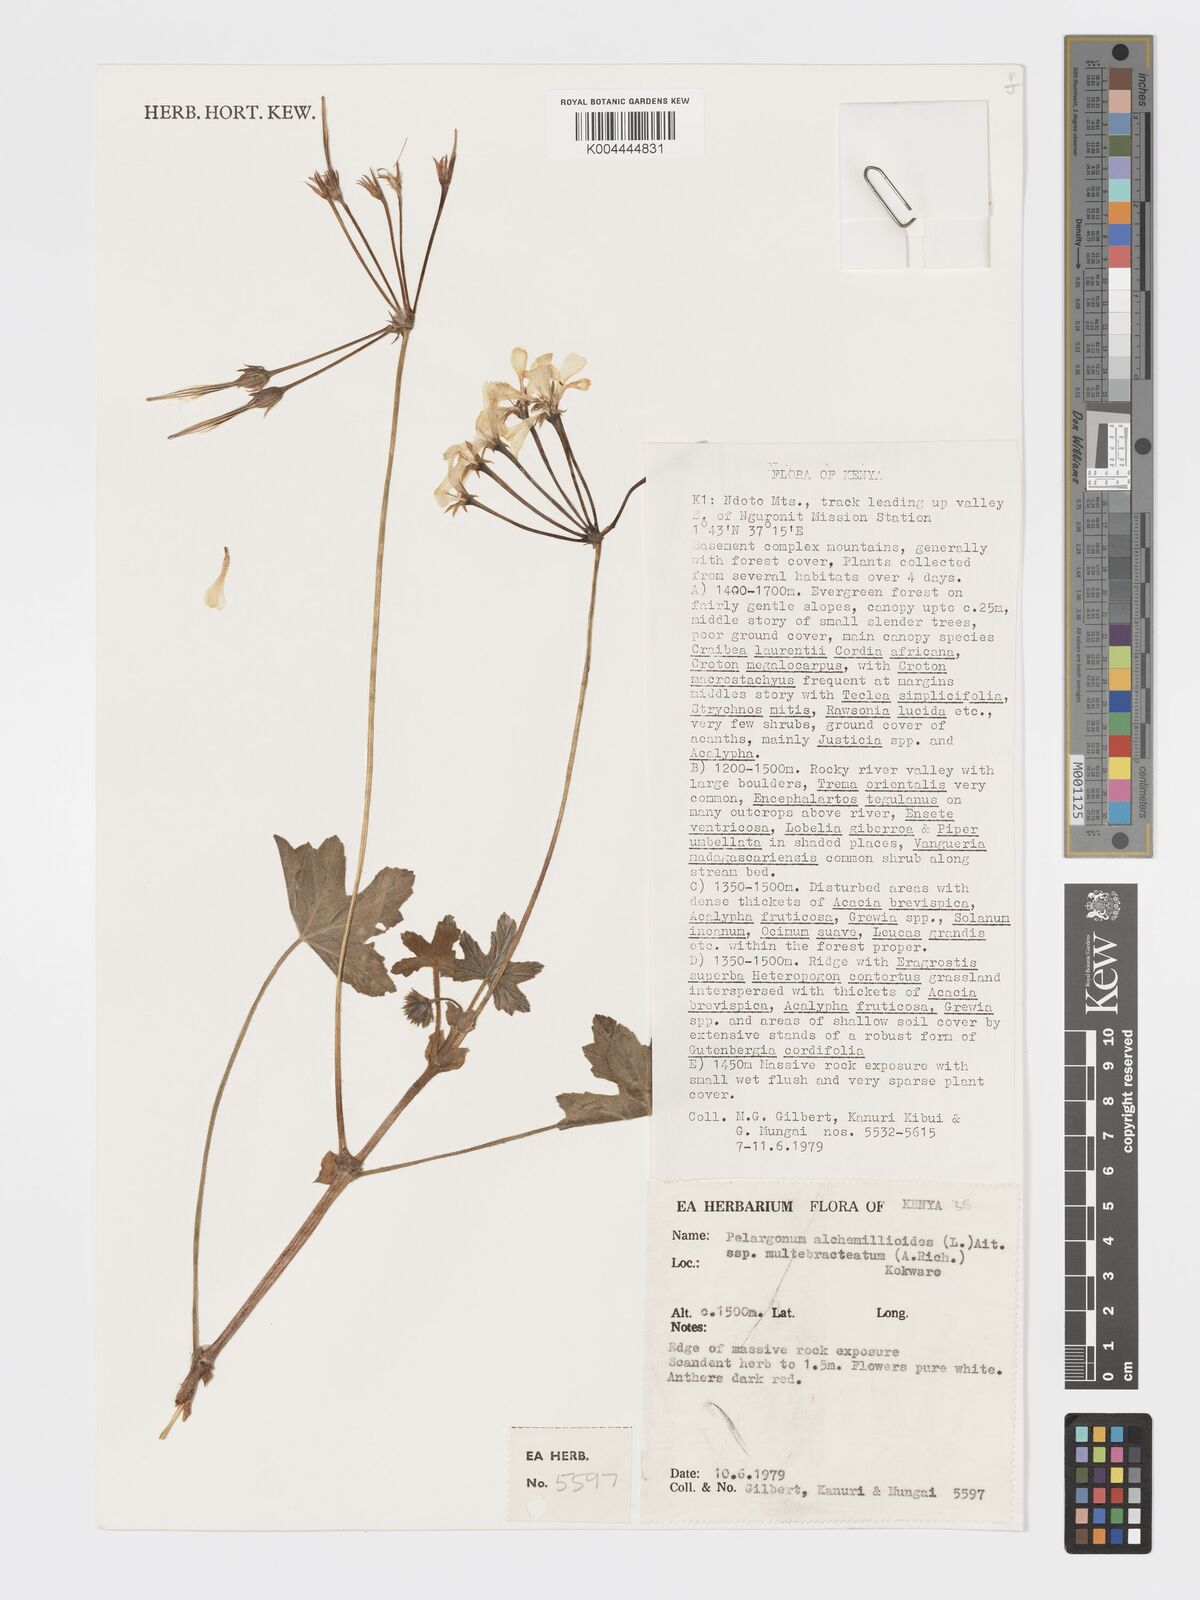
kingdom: Plantae
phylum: Tracheophyta
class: Magnoliopsida
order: Geraniales
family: Geraniaceae
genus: Pelargonium
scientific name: Pelargonium alchemilloides
